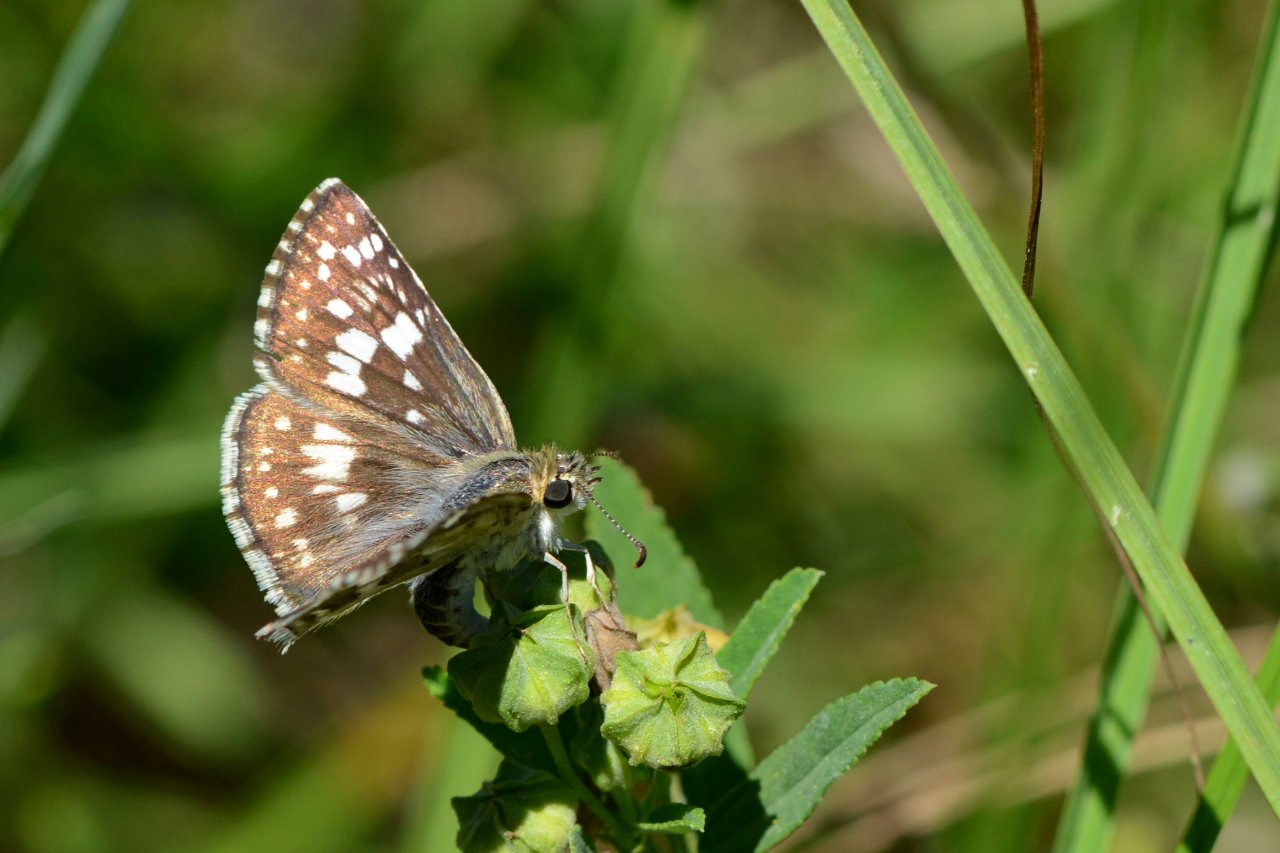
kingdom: Animalia
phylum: Arthropoda
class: Insecta
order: Lepidoptera
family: Hesperiidae
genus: Pyrgus
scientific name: Pyrgus
